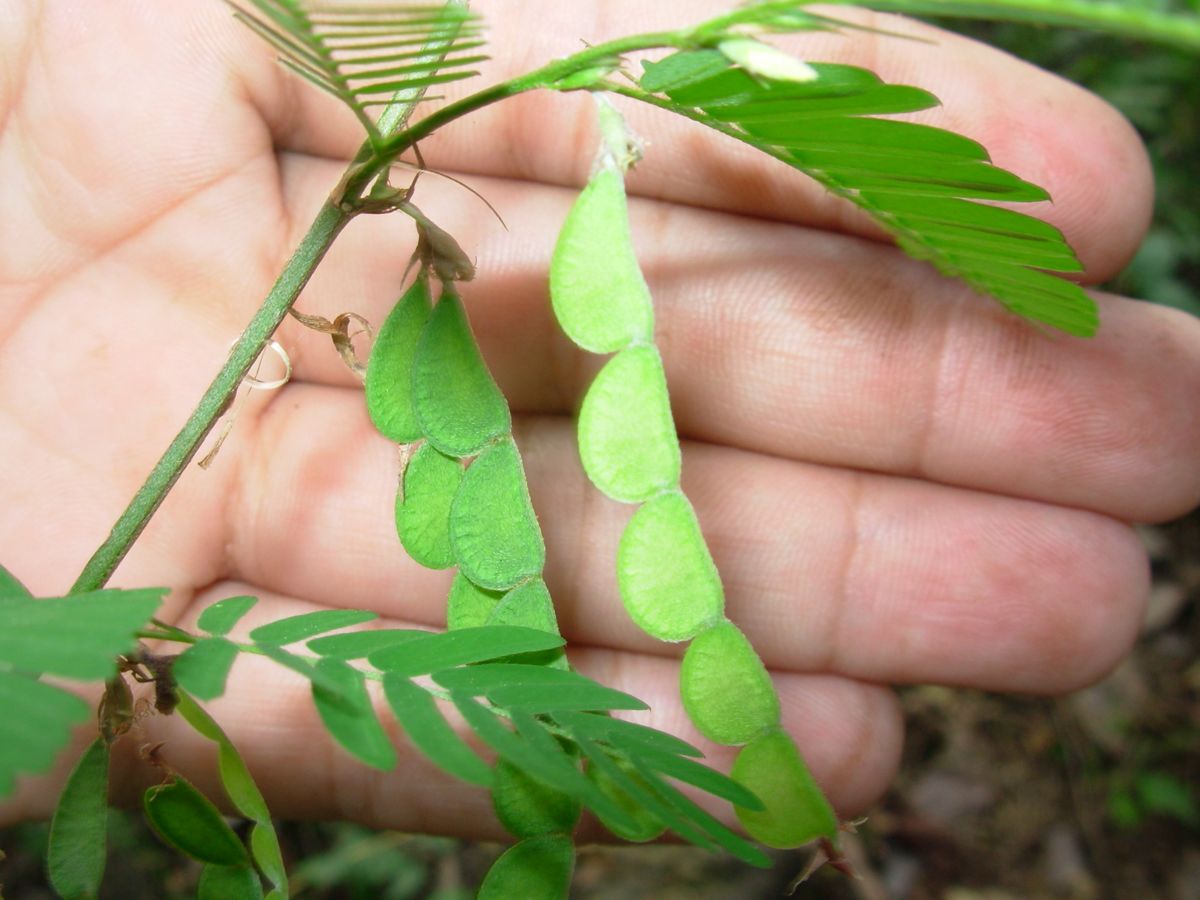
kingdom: Plantae
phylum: Tracheophyta
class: Magnoliopsida
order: Fabales
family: Fabaceae
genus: Ctenodon
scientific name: Ctenodon fascicularis
